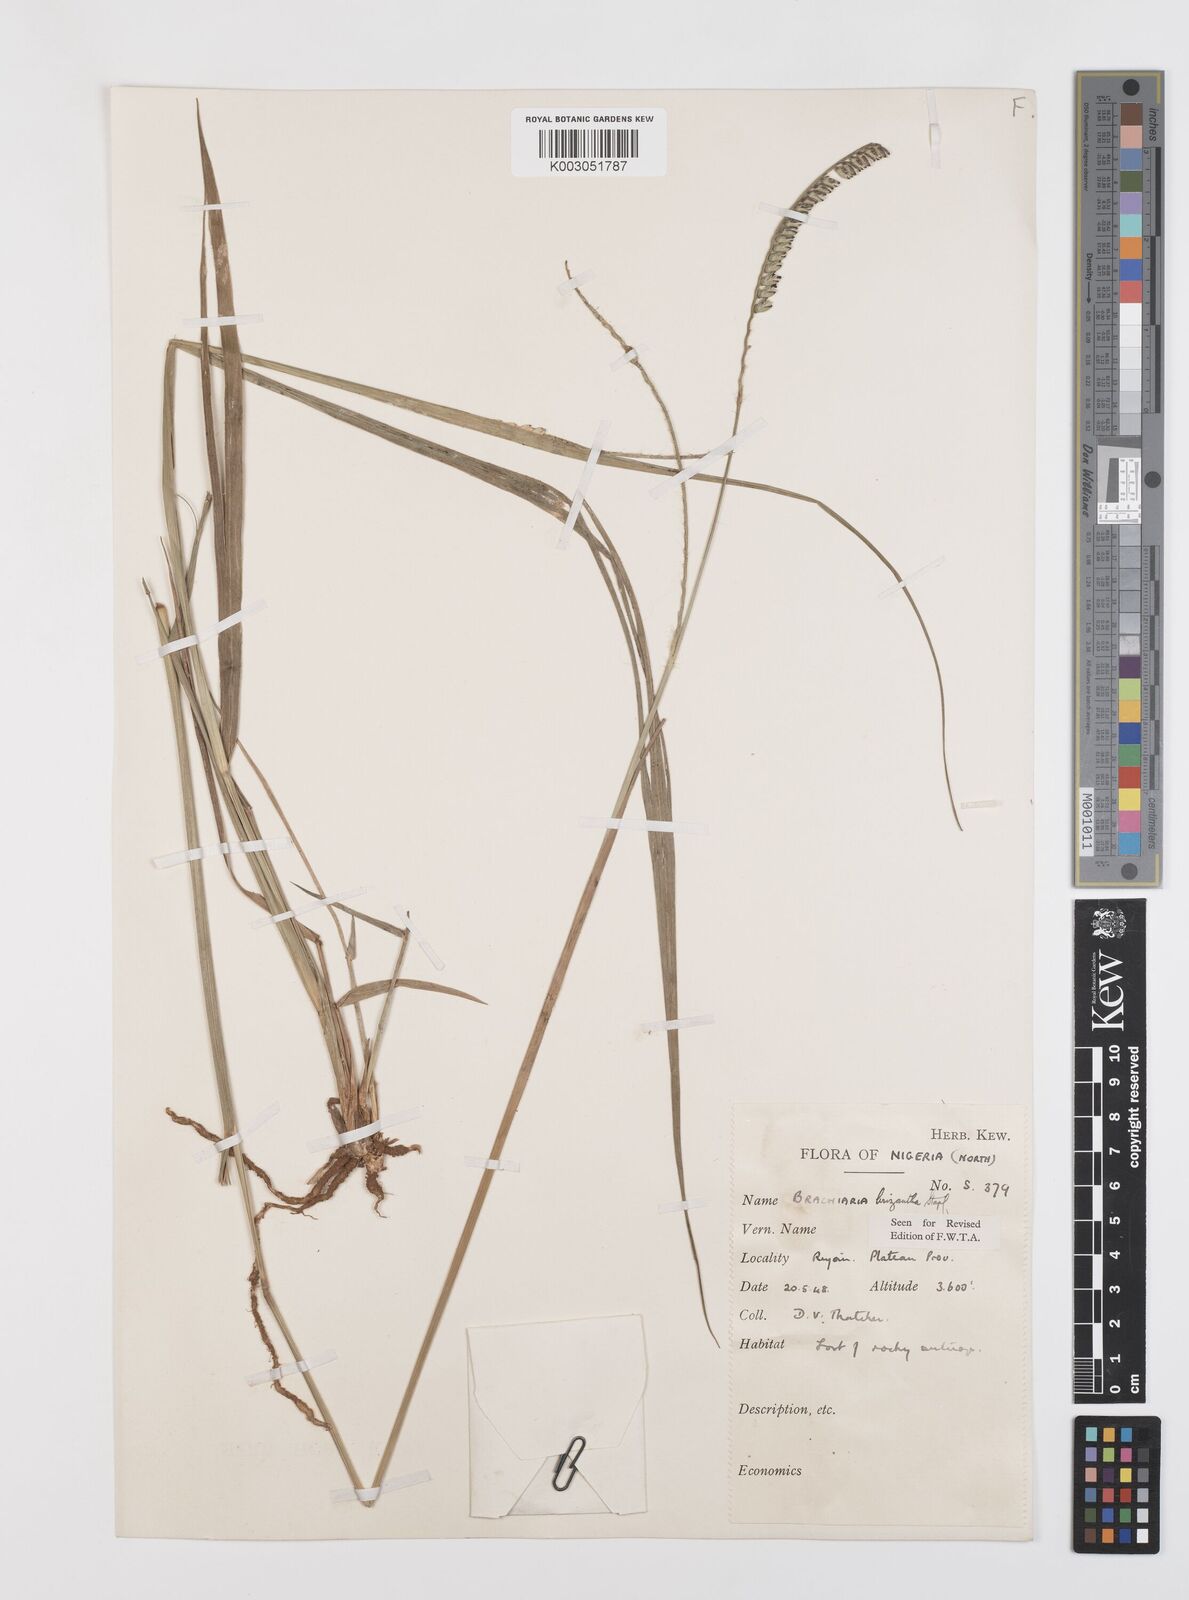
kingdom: Plantae
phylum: Tracheophyta
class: Liliopsida
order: Poales
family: Poaceae
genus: Urochloa
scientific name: Urochloa brizantha
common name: Palisade signalgrass
